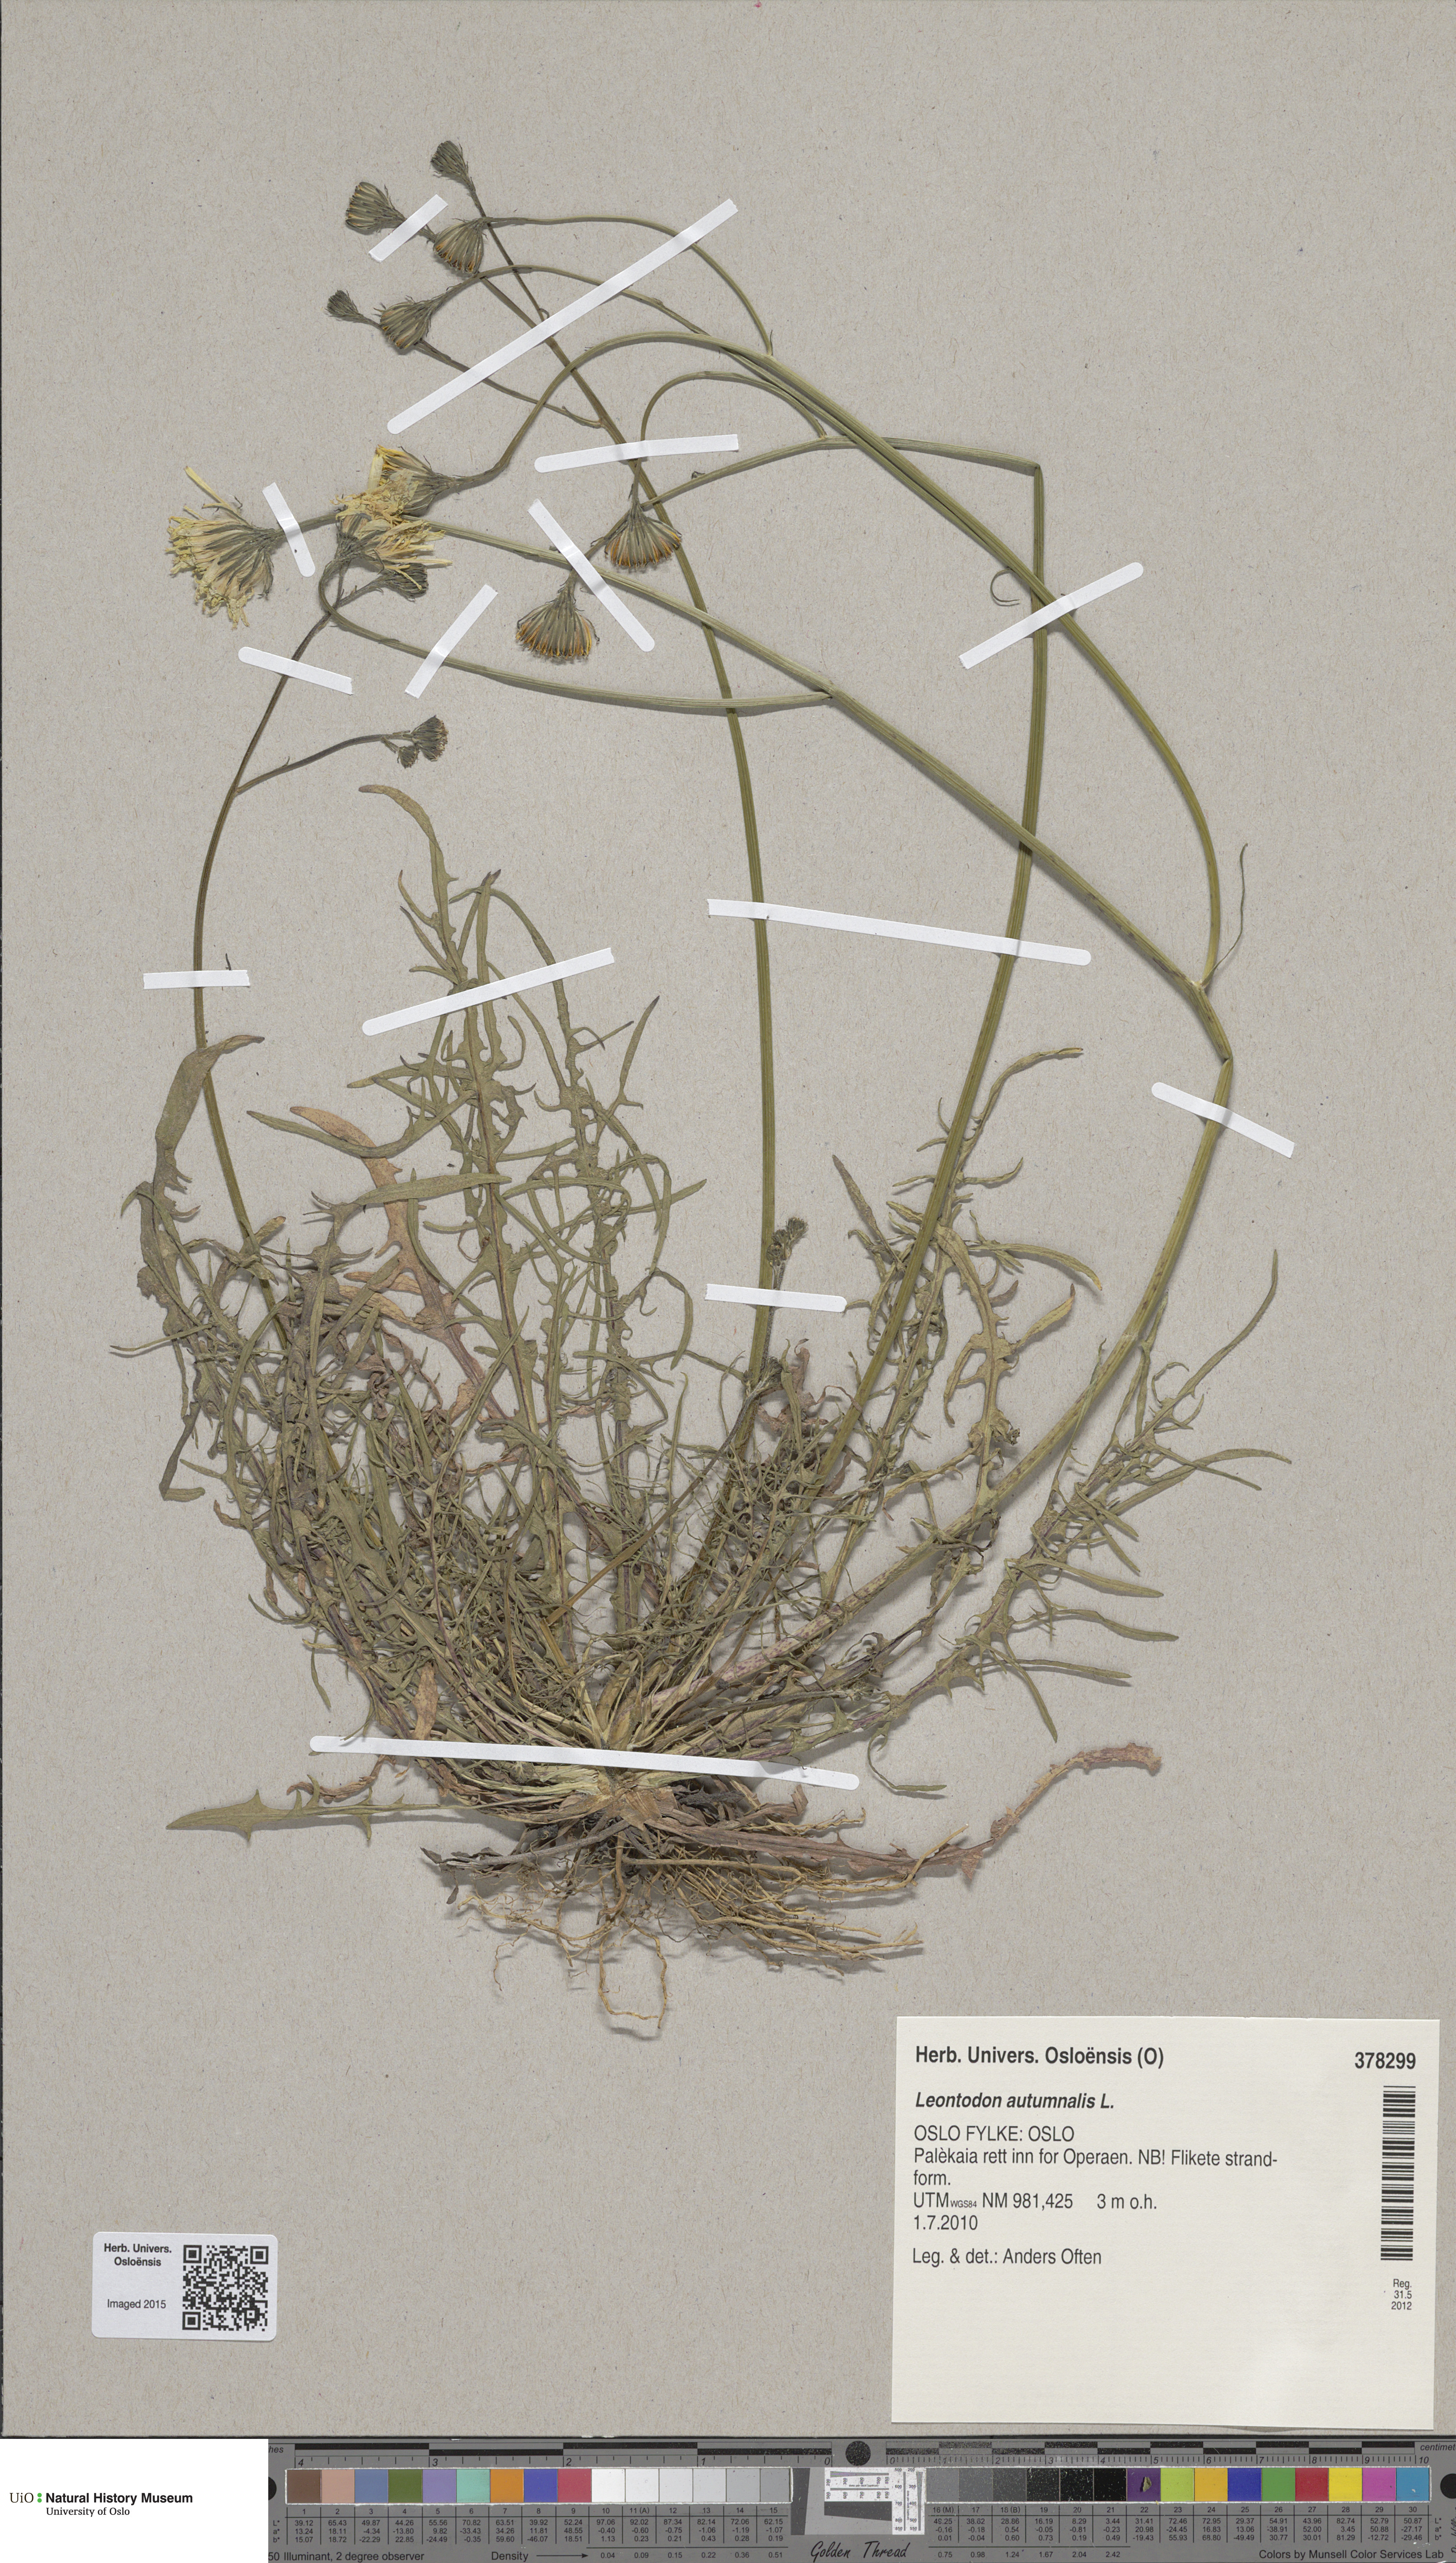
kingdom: Plantae
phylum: Tracheophyta
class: Magnoliopsida
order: Asterales
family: Asteraceae
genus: Scorzoneroides
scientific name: Scorzoneroides autumnalis
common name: Autumn hawkbit
